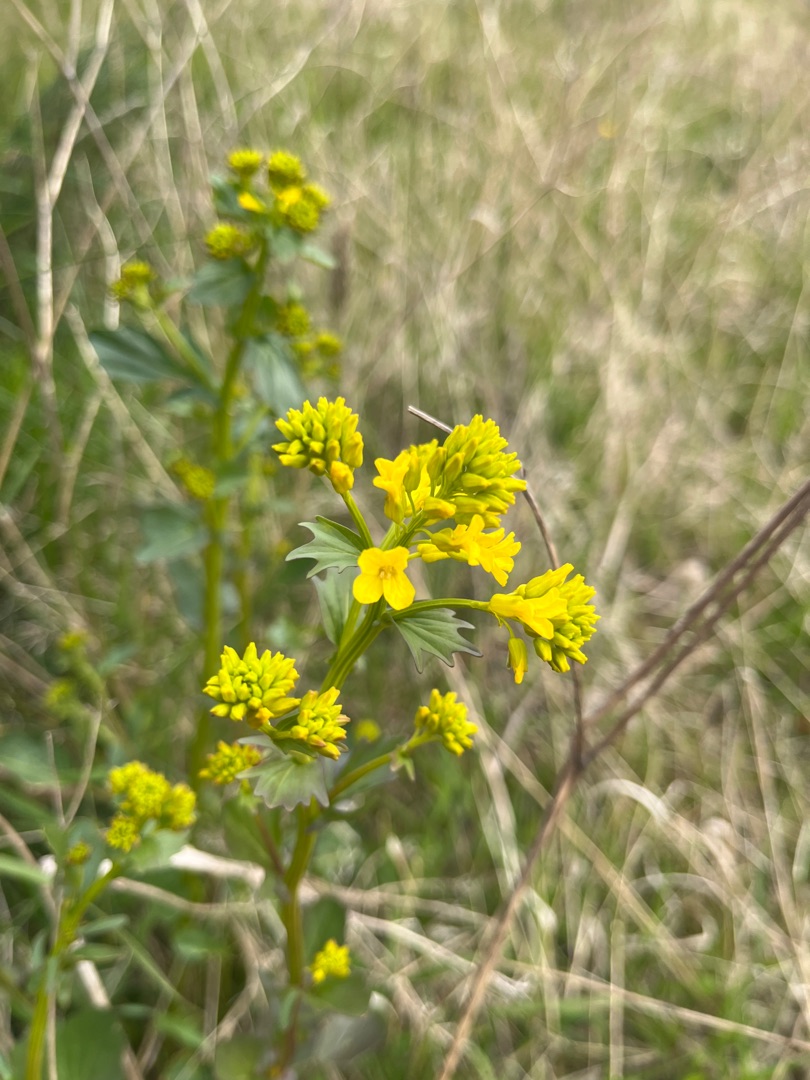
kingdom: Plantae
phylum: Tracheophyta
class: Magnoliopsida
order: Brassicales
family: Brassicaceae
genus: Barbarea
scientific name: Barbarea vulgaris
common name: Almindelig vinterkarse
